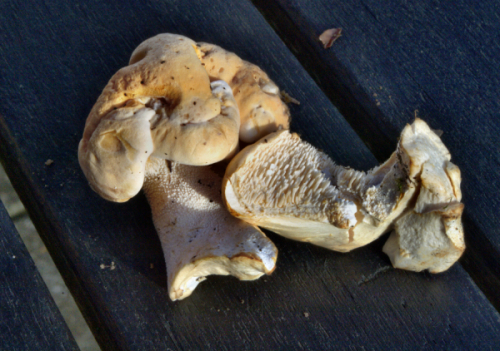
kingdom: Fungi
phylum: Basidiomycota
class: Agaricomycetes
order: Cantharellales
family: Hydnaceae
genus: Hydnum
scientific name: Hydnum repandum
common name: almindelig pigsvamp
